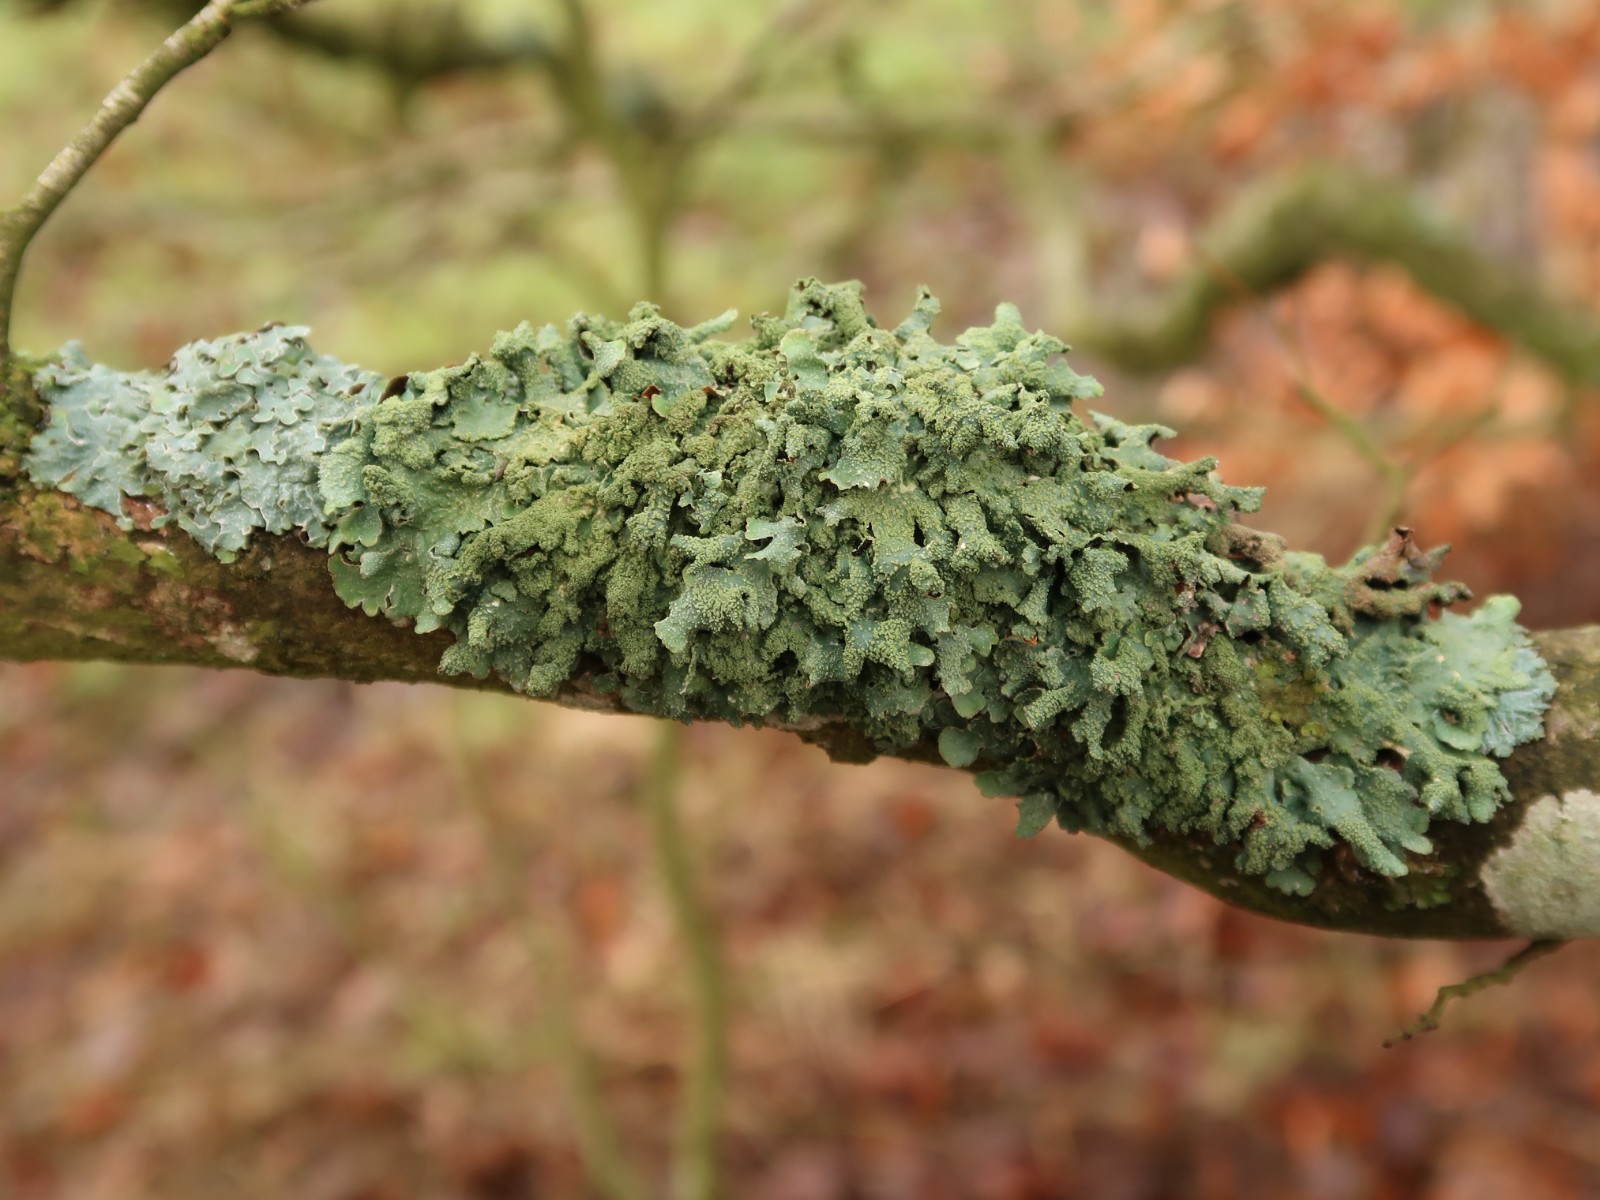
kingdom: Fungi
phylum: Ascomycota
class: Lecanoromycetes
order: Lecanorales
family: Parmeliaceae
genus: Parmelia
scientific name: Parmelia submontana
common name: langlobet skållav
